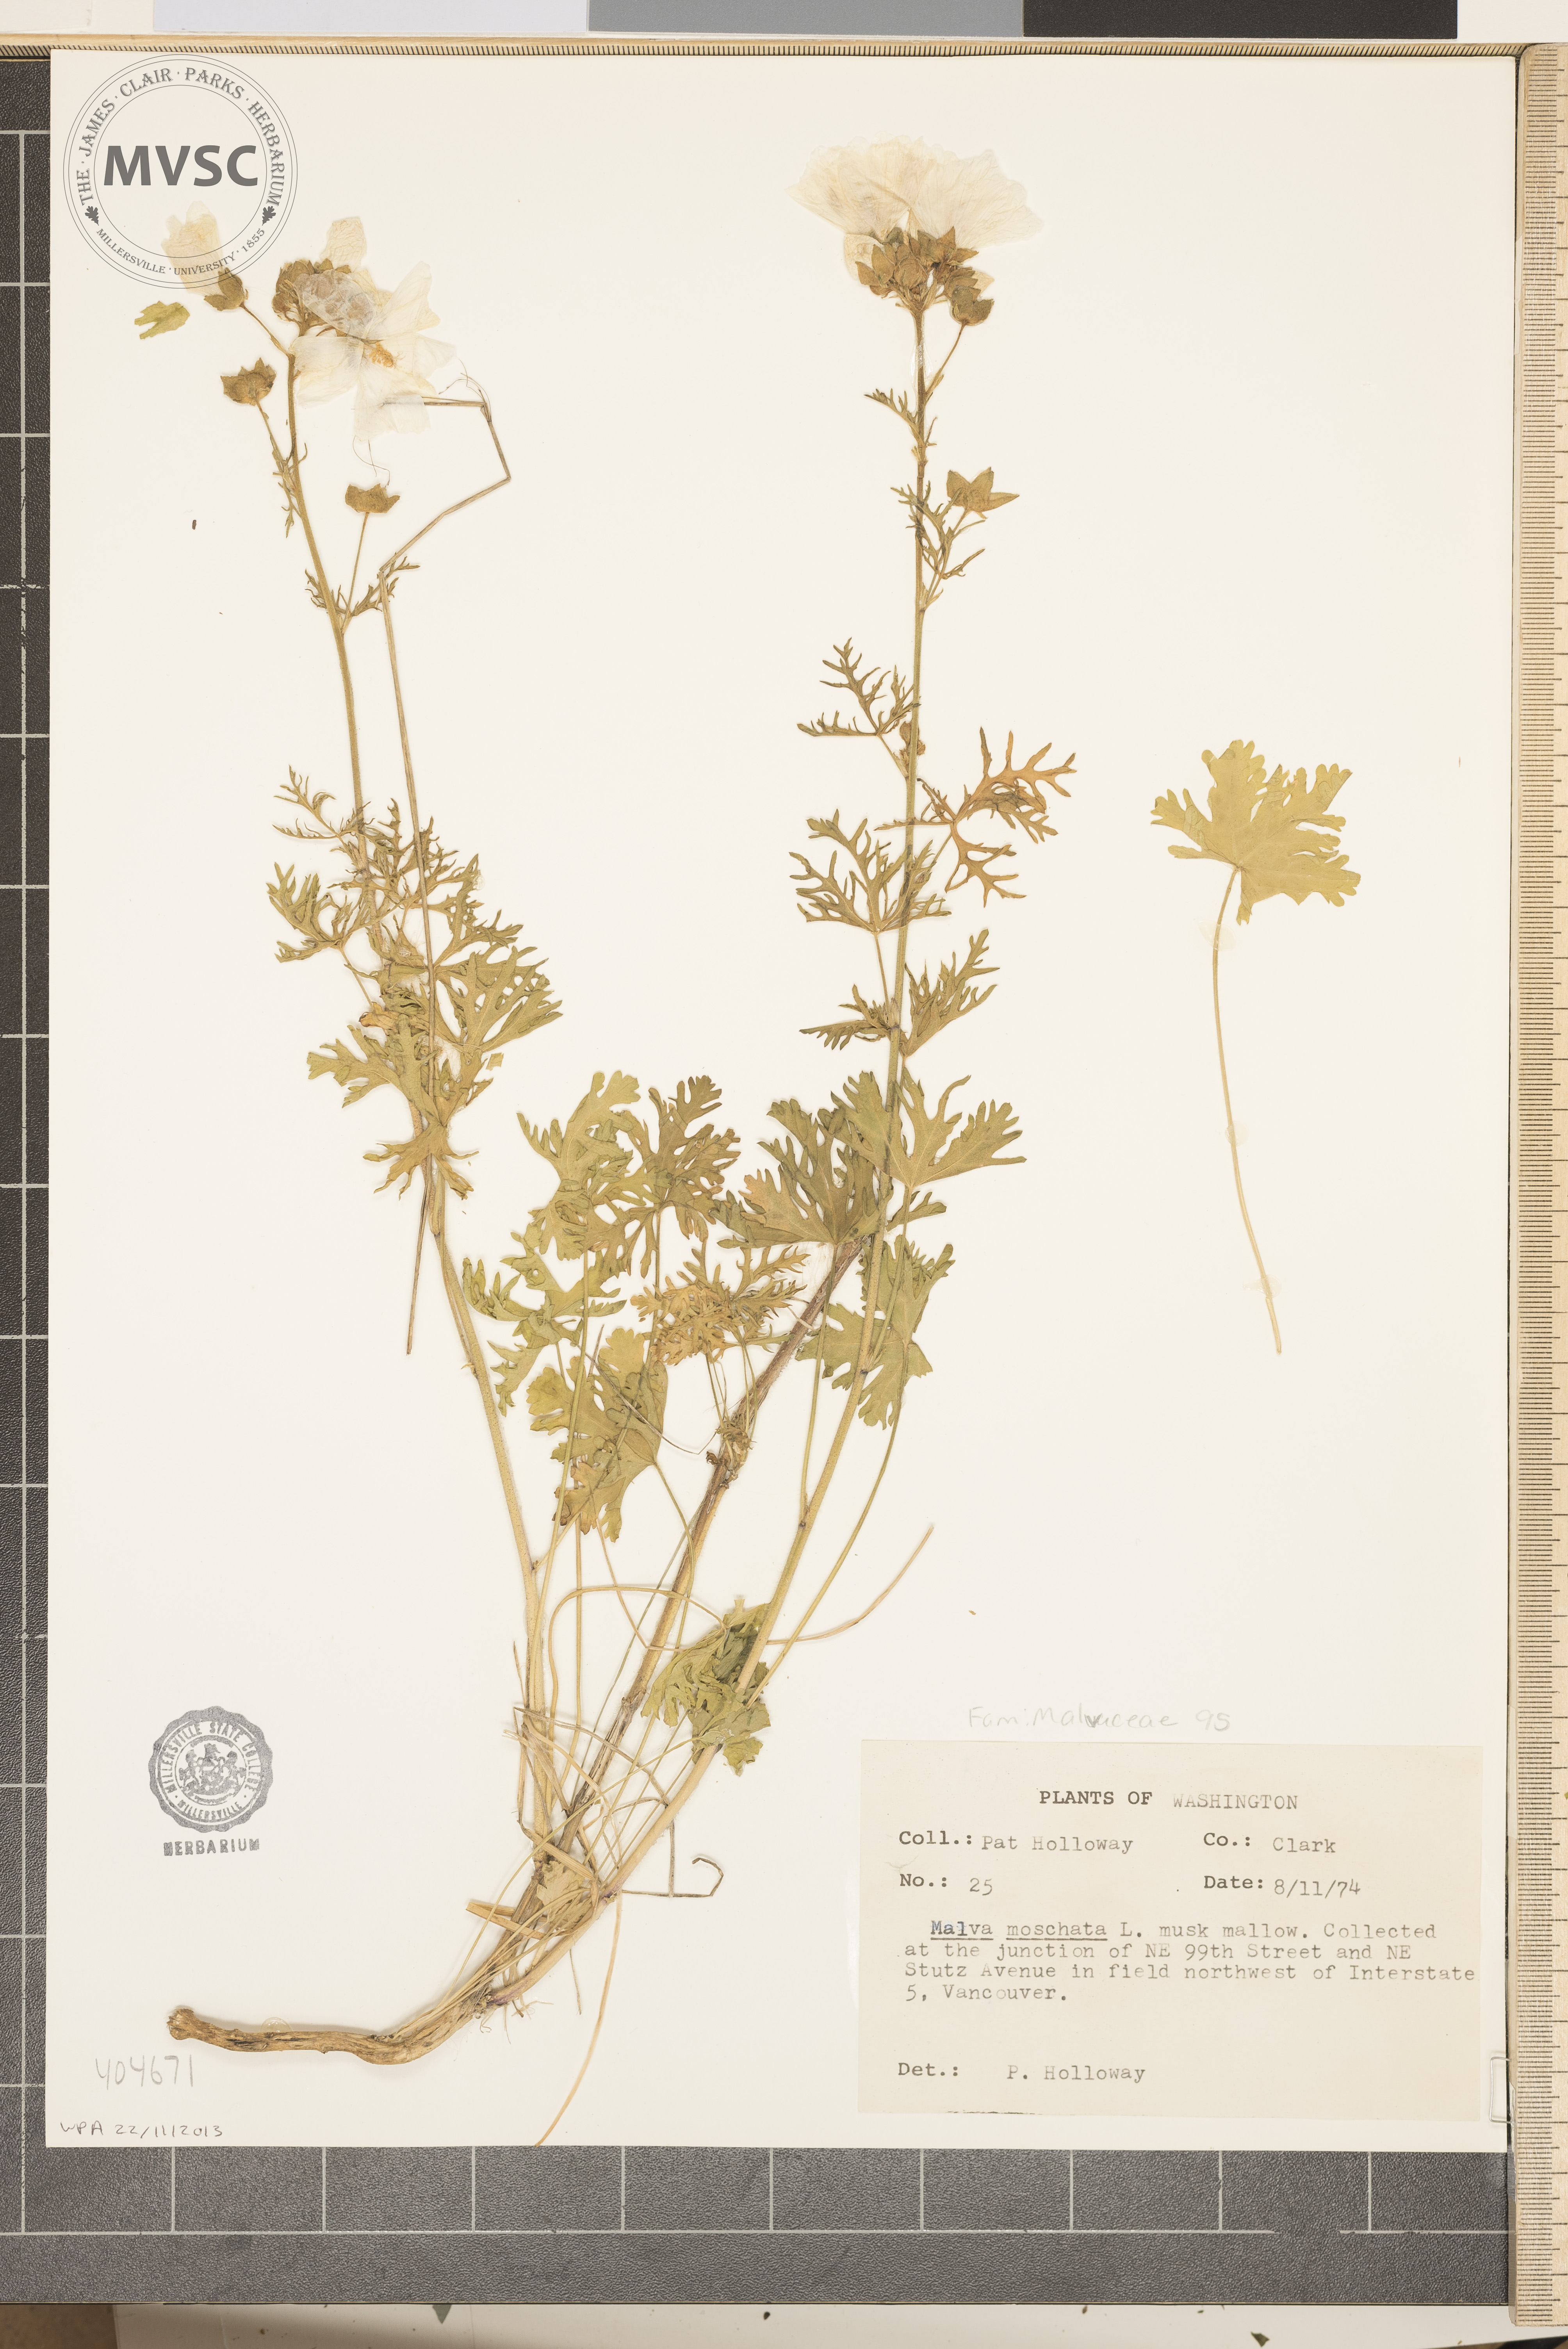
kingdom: Plantae
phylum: Tracheophyta
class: Magnoliopsida
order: Malvales
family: Malvaceae
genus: Malva
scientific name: Malva moschata
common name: Musk Mallow
